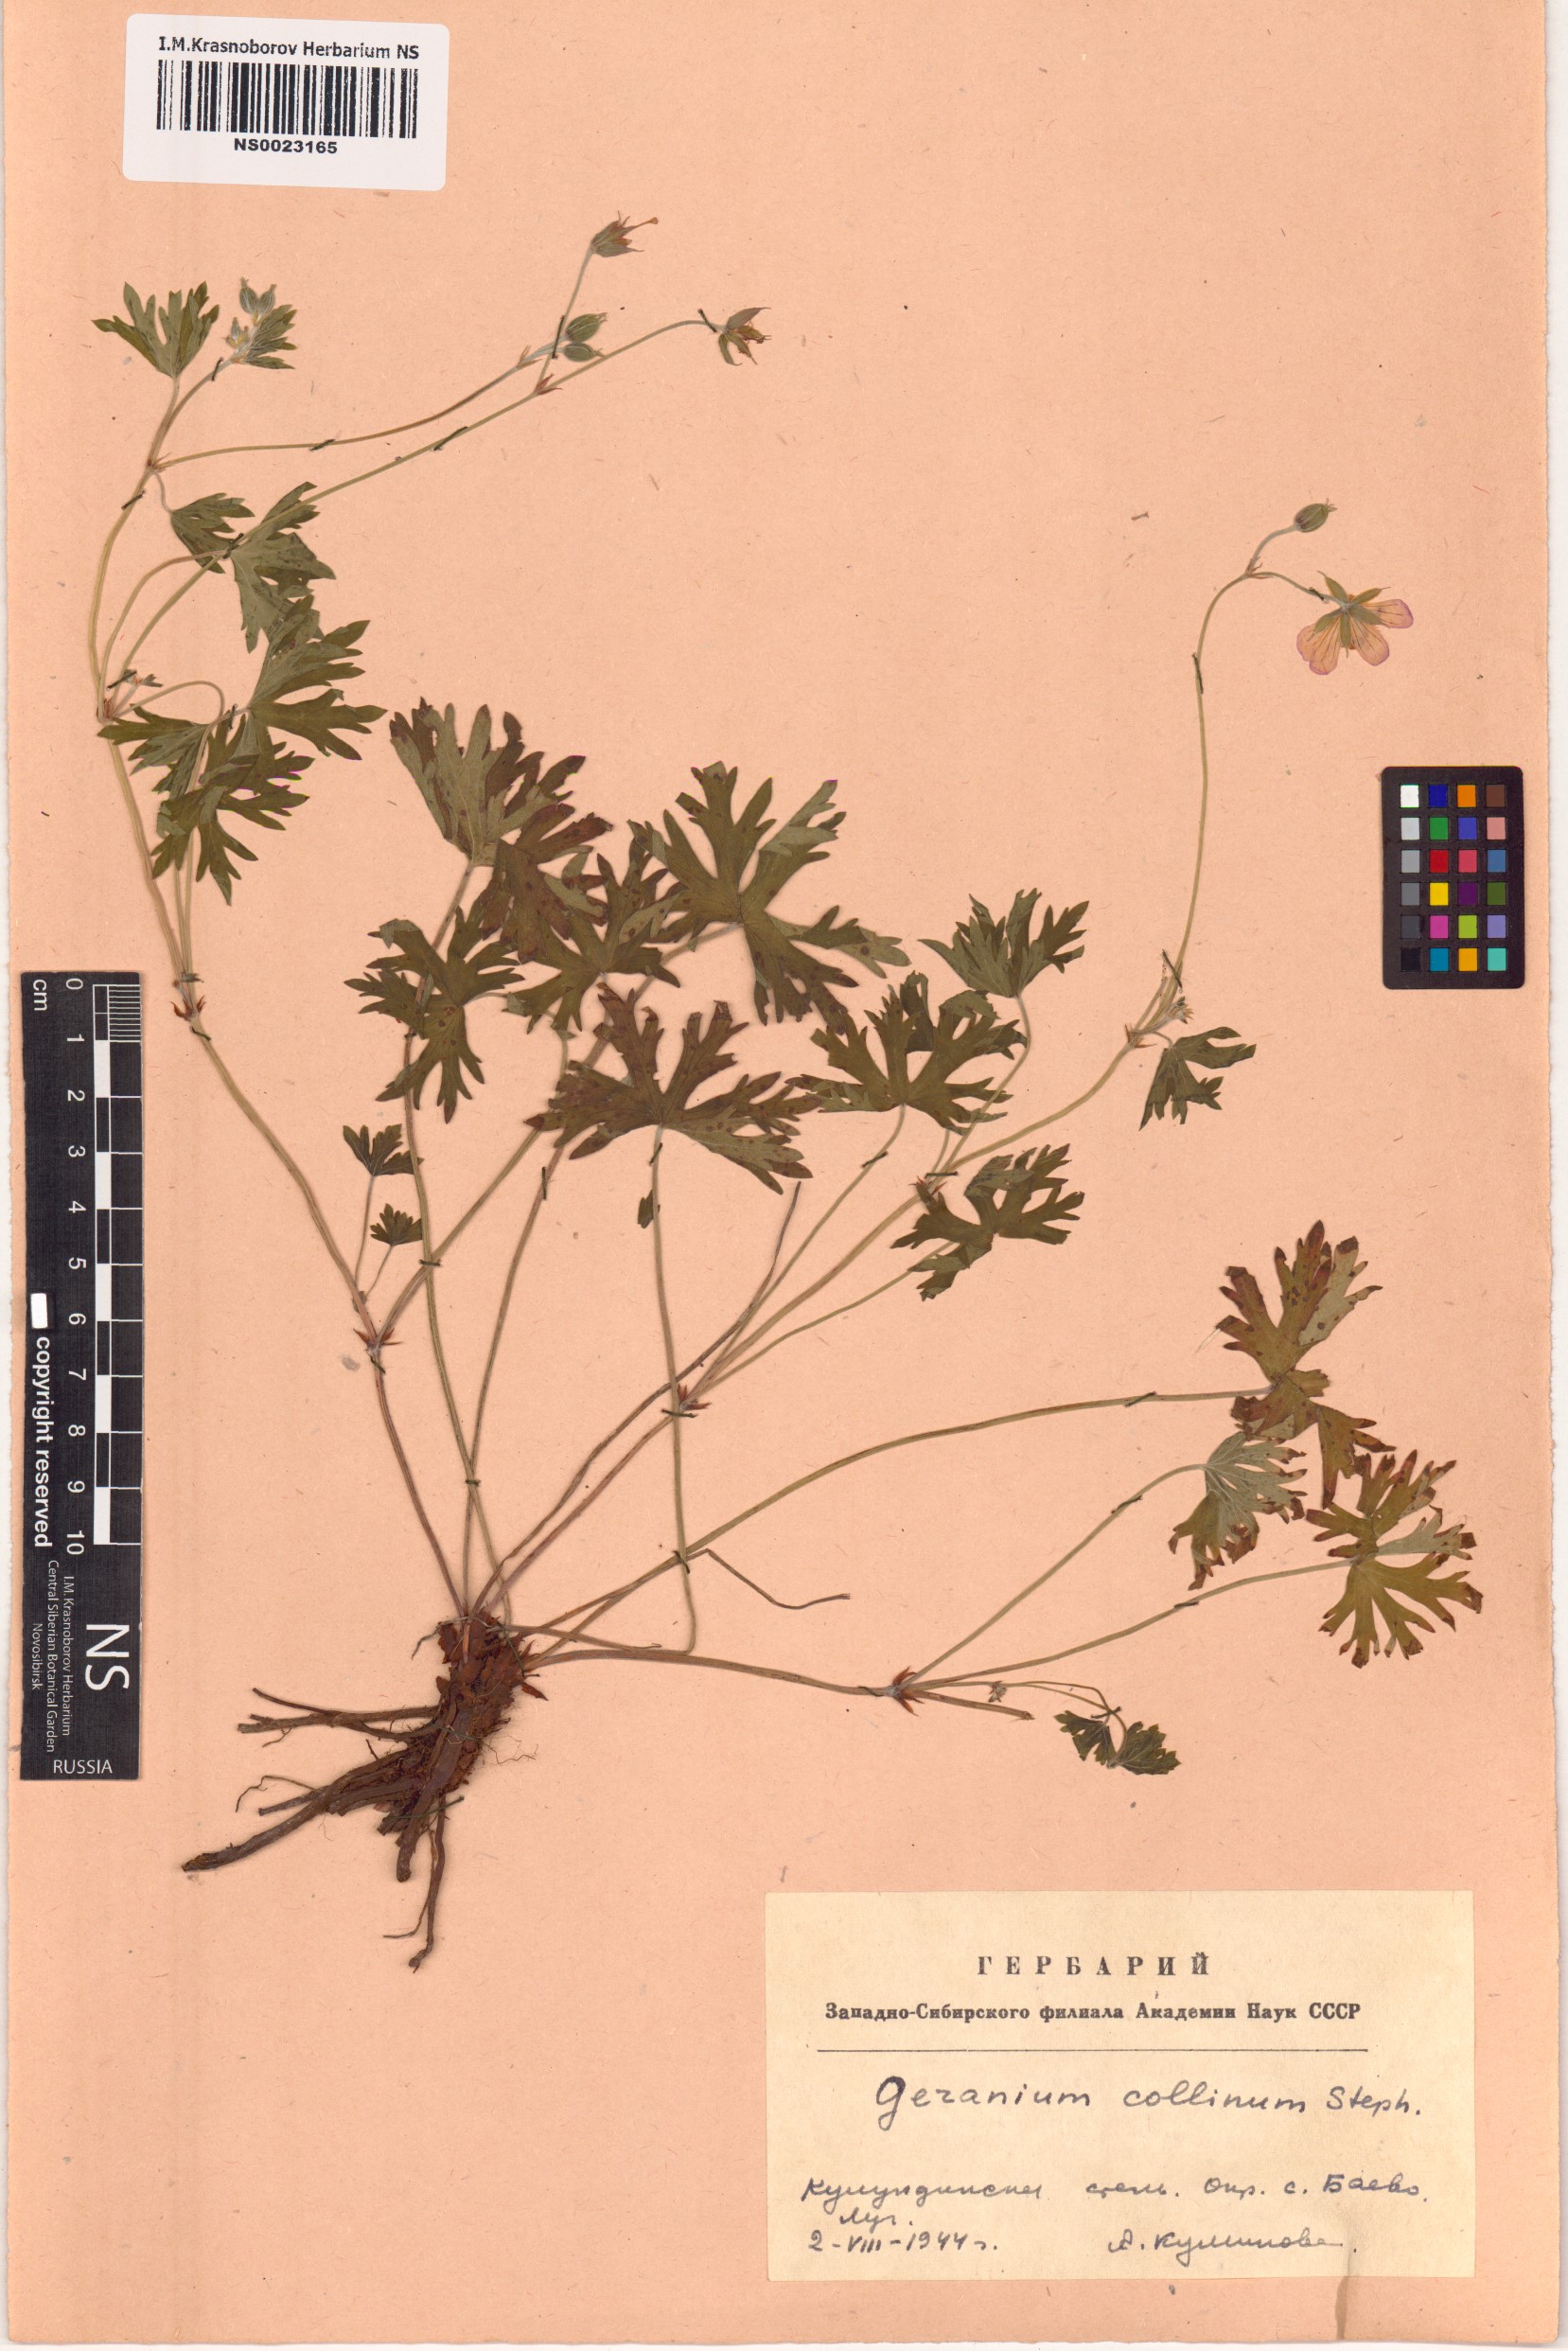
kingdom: Plantae
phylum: Tracheophyta
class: Magnoliopsida
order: Geraniales
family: Geraniaceae
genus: Geranium
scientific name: Geranium collinum
